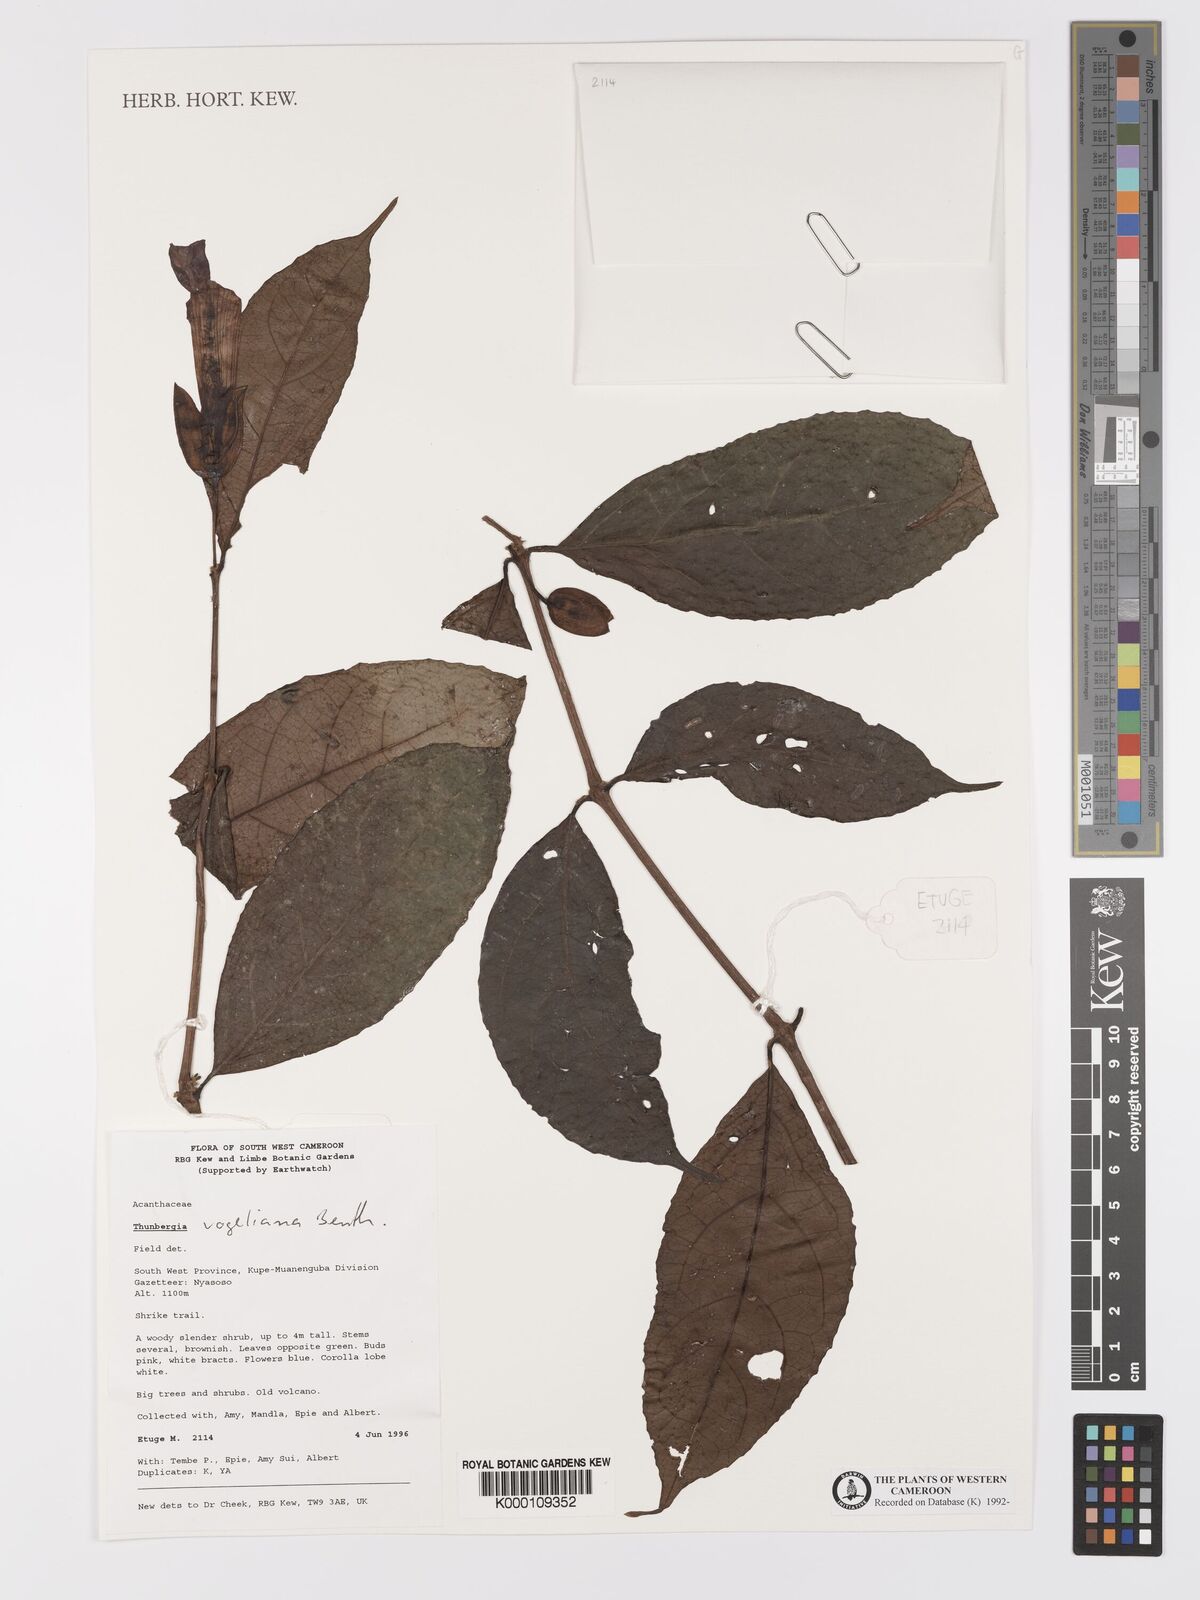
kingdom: Plantae
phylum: Tracheophyta
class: Magnoliopsida
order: Lamiales
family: Acanthaceae
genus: Thunbergia
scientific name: Thunbergia vogeliana
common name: Acanthaceae
